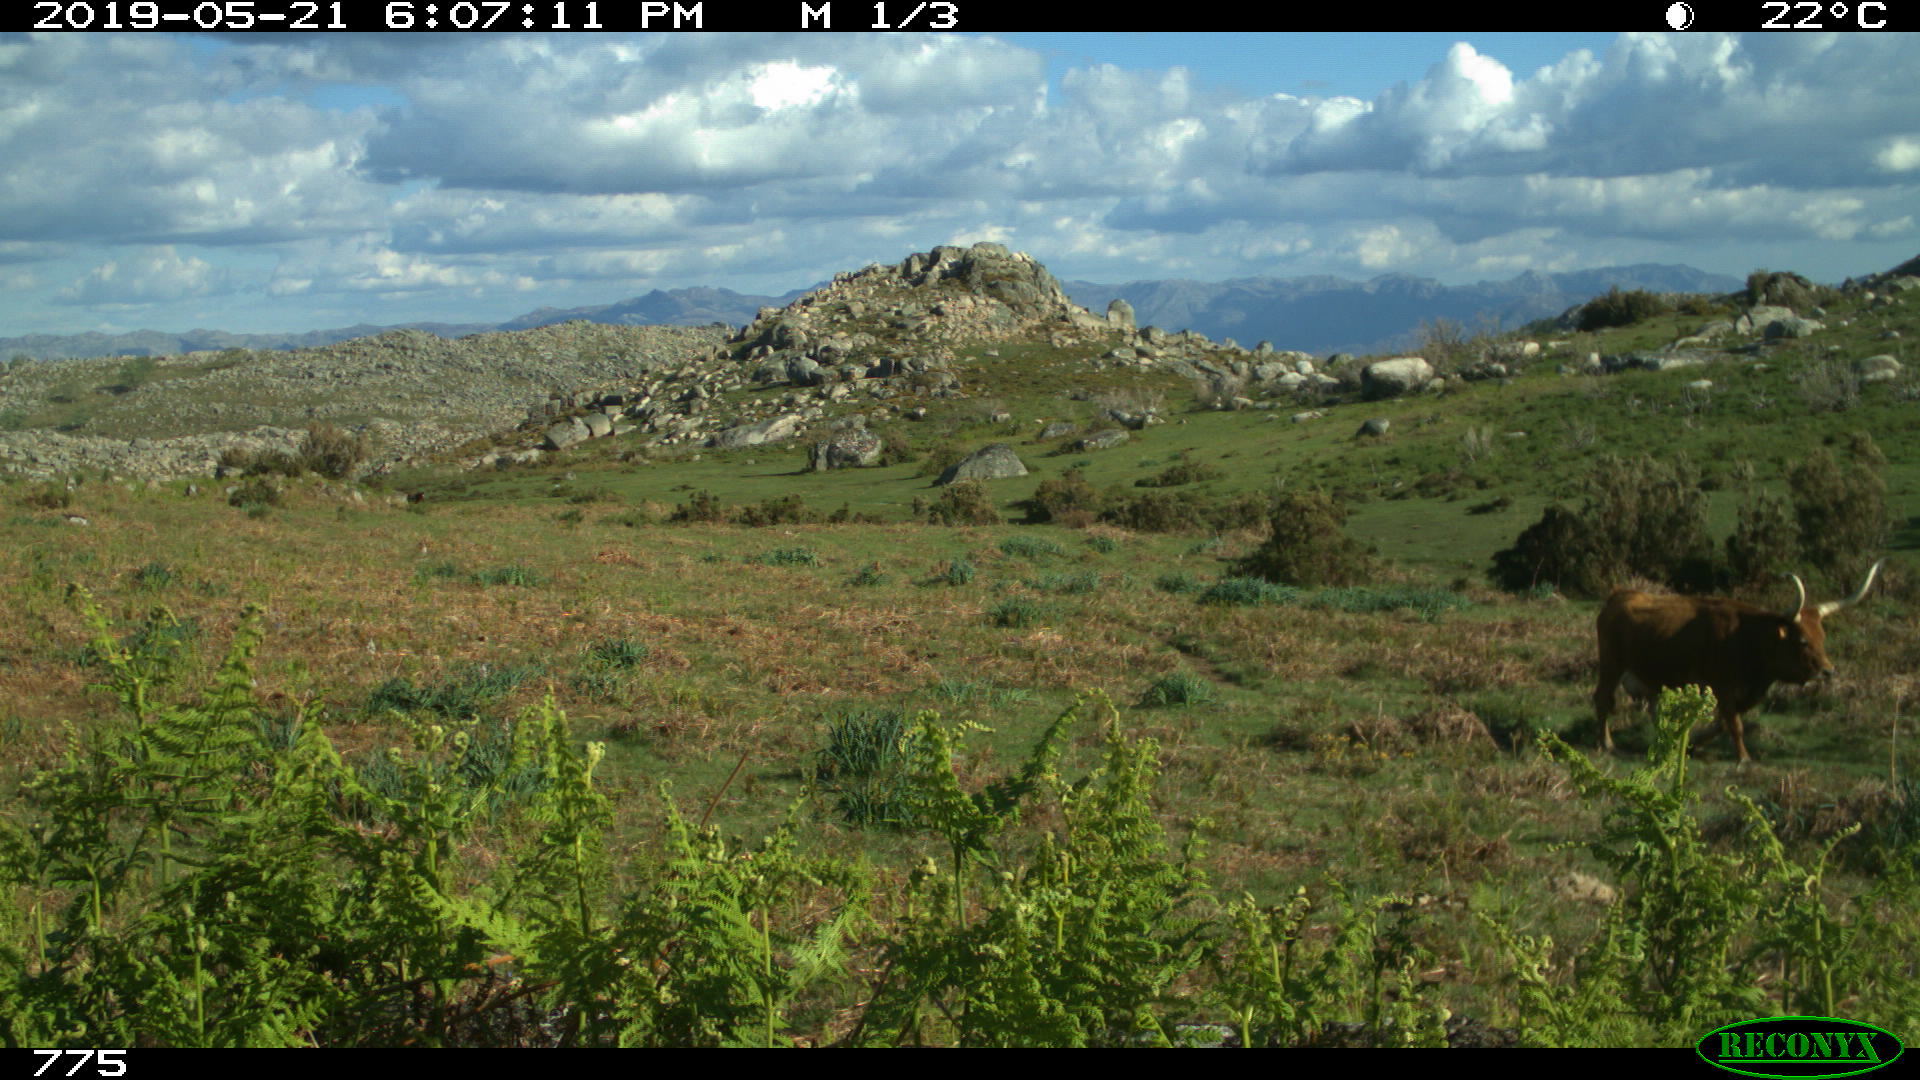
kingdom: Animalia
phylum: Chordata
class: Mammalia
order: Artiodactyla
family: Bovidae
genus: Bos
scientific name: Bos taurus
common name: Domesticated cattle
